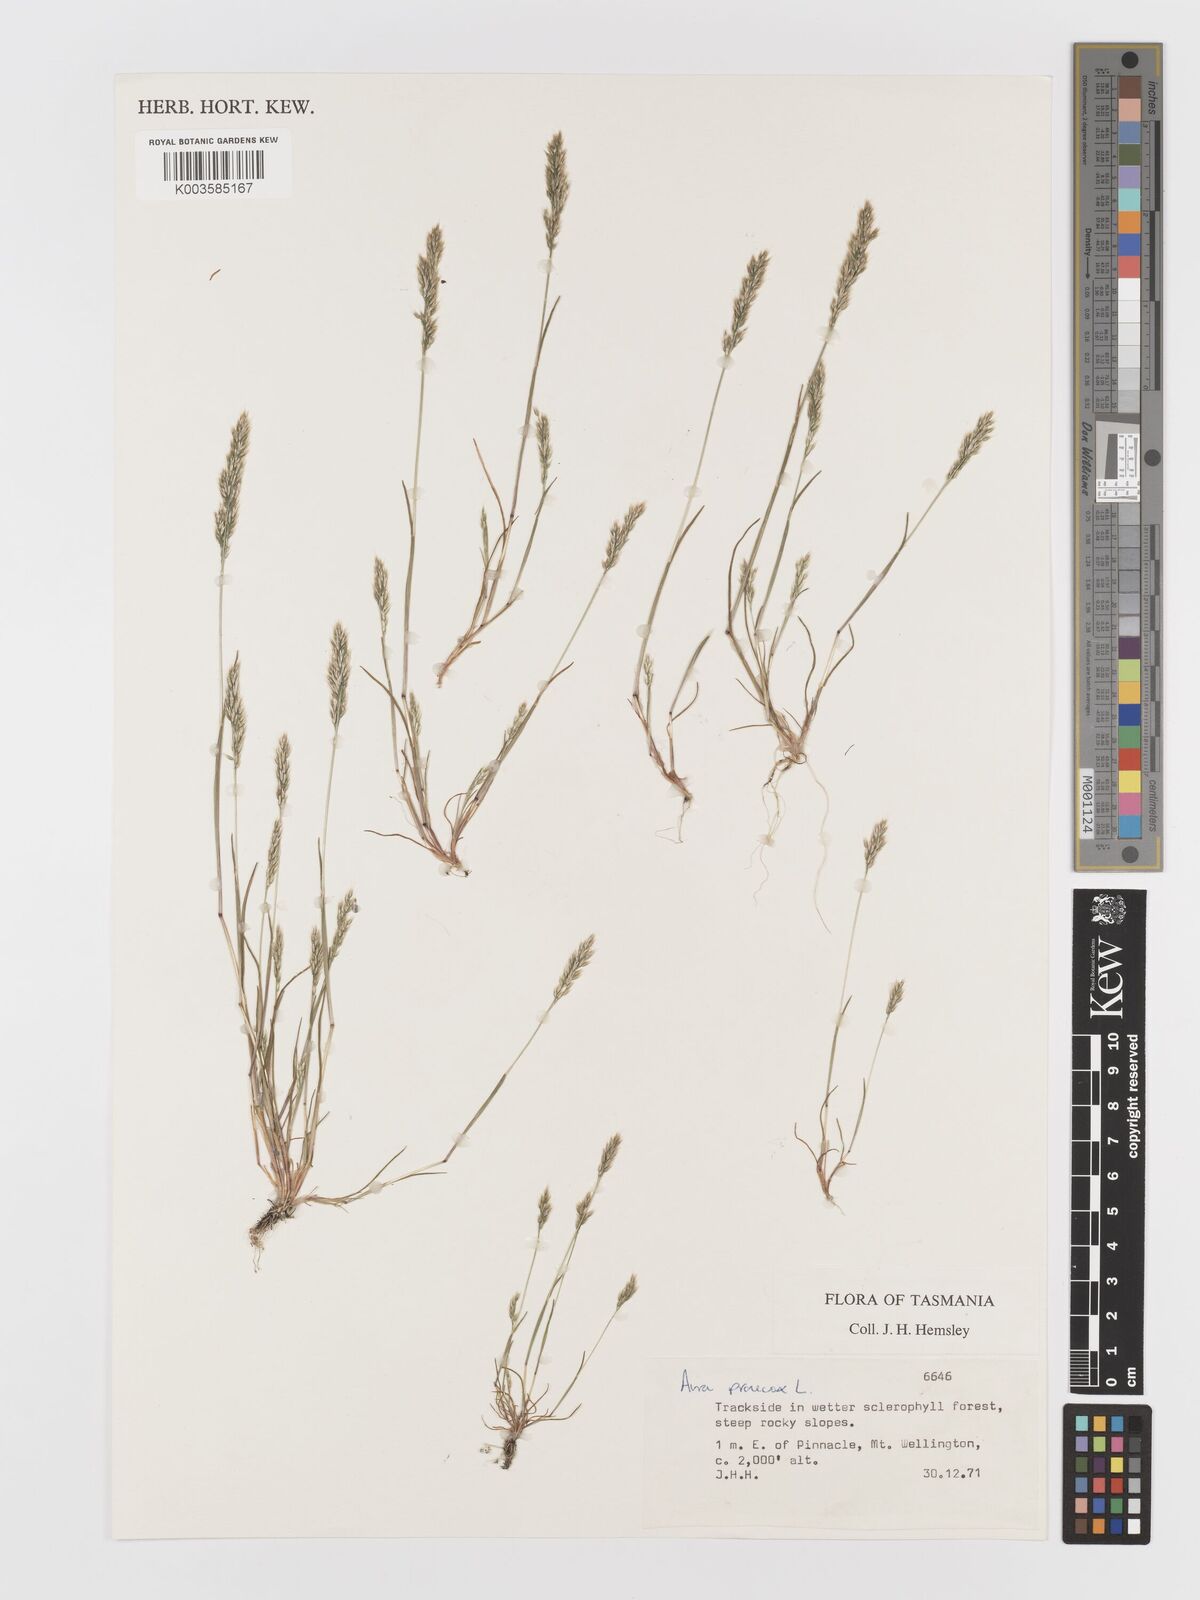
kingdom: Plantae
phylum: Tracheophyta
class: Liliopsida
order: Poales
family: Poaceae
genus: Aira
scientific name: Aira praecox
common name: Early hair-grass
